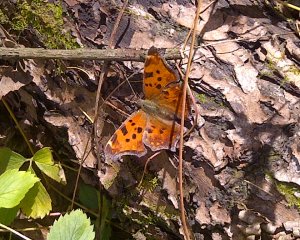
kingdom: Animalia
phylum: Arthropoda
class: Insecta
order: Lepidoptera
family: Nymphalidae
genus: Polygonia
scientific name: Polygonia interrogationis
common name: Question Mark
